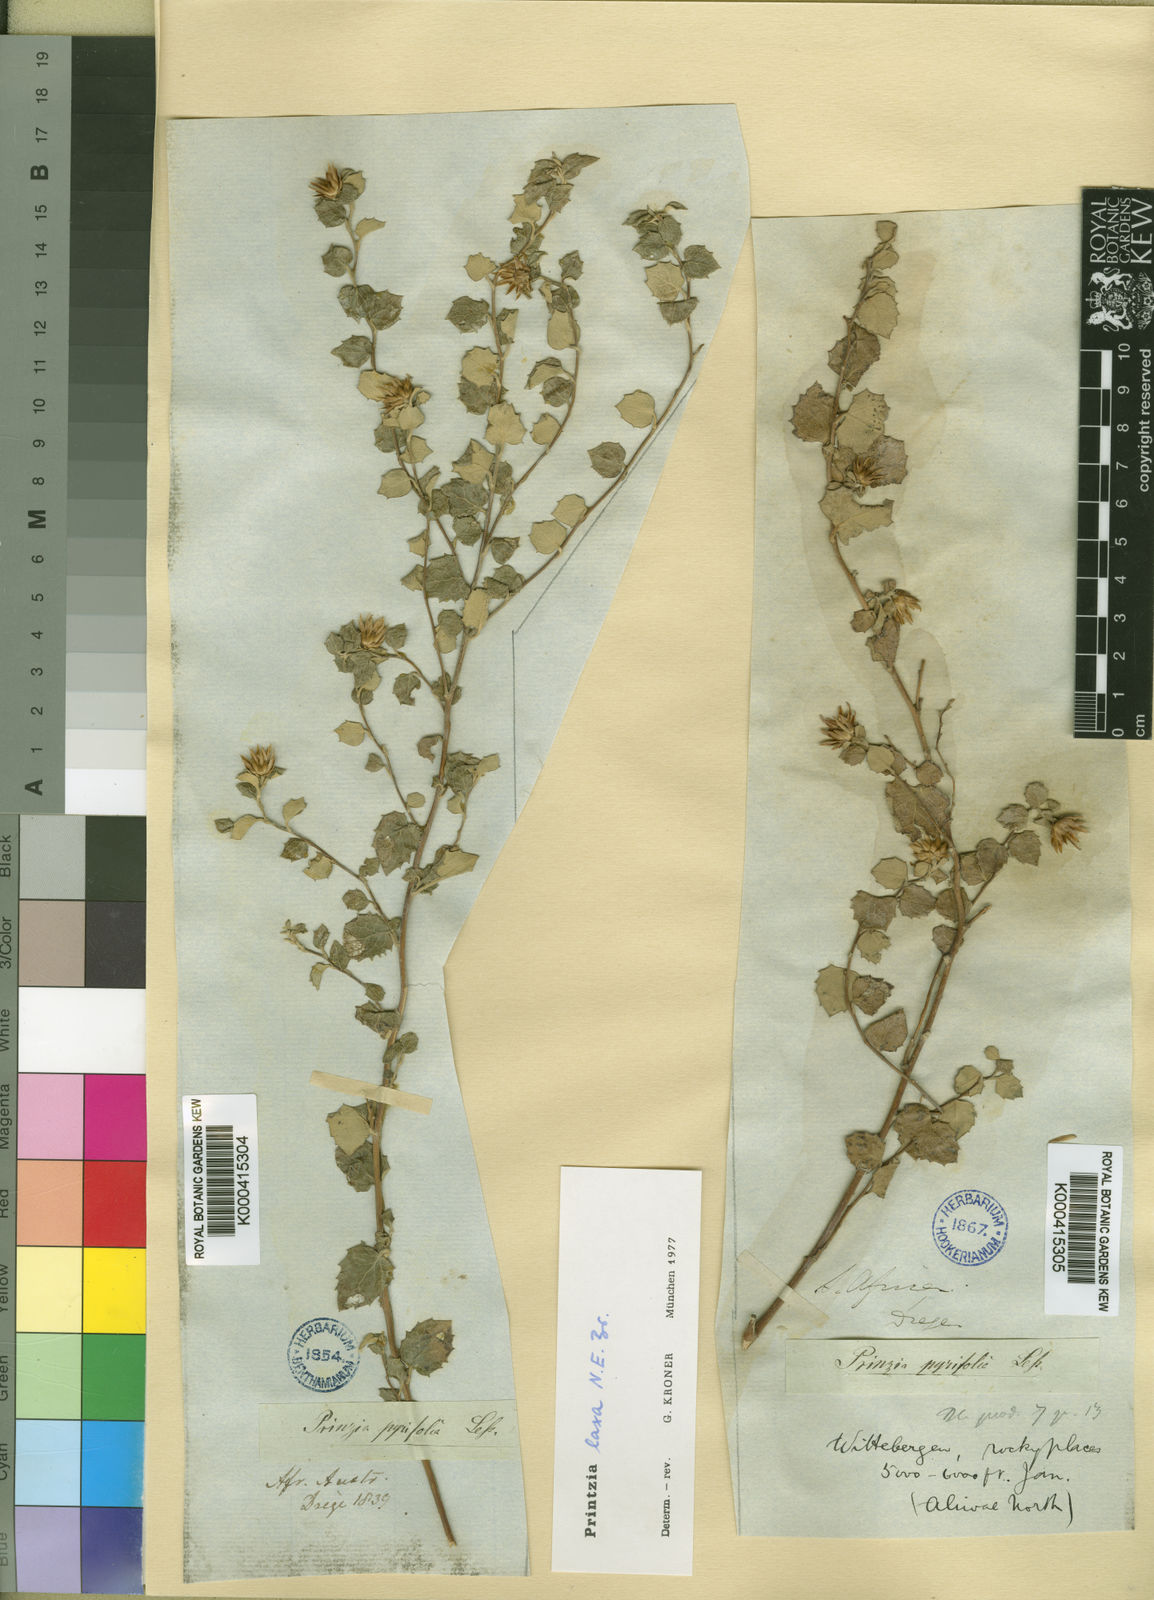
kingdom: Plantae
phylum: Tracheophyta
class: Magnoliopsida
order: Asterales
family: Asteraceae
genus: Printzia
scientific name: Printzia
